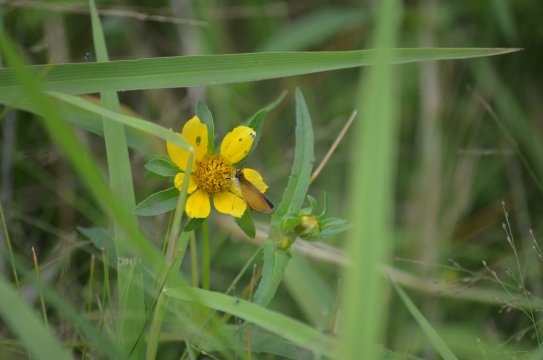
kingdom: Animalia
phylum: Arthropoda
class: Insecta
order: Lepidoptera
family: Hesperiidae
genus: Ancyloxypha
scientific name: Ancyloxypha numitor
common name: Least Skipper
